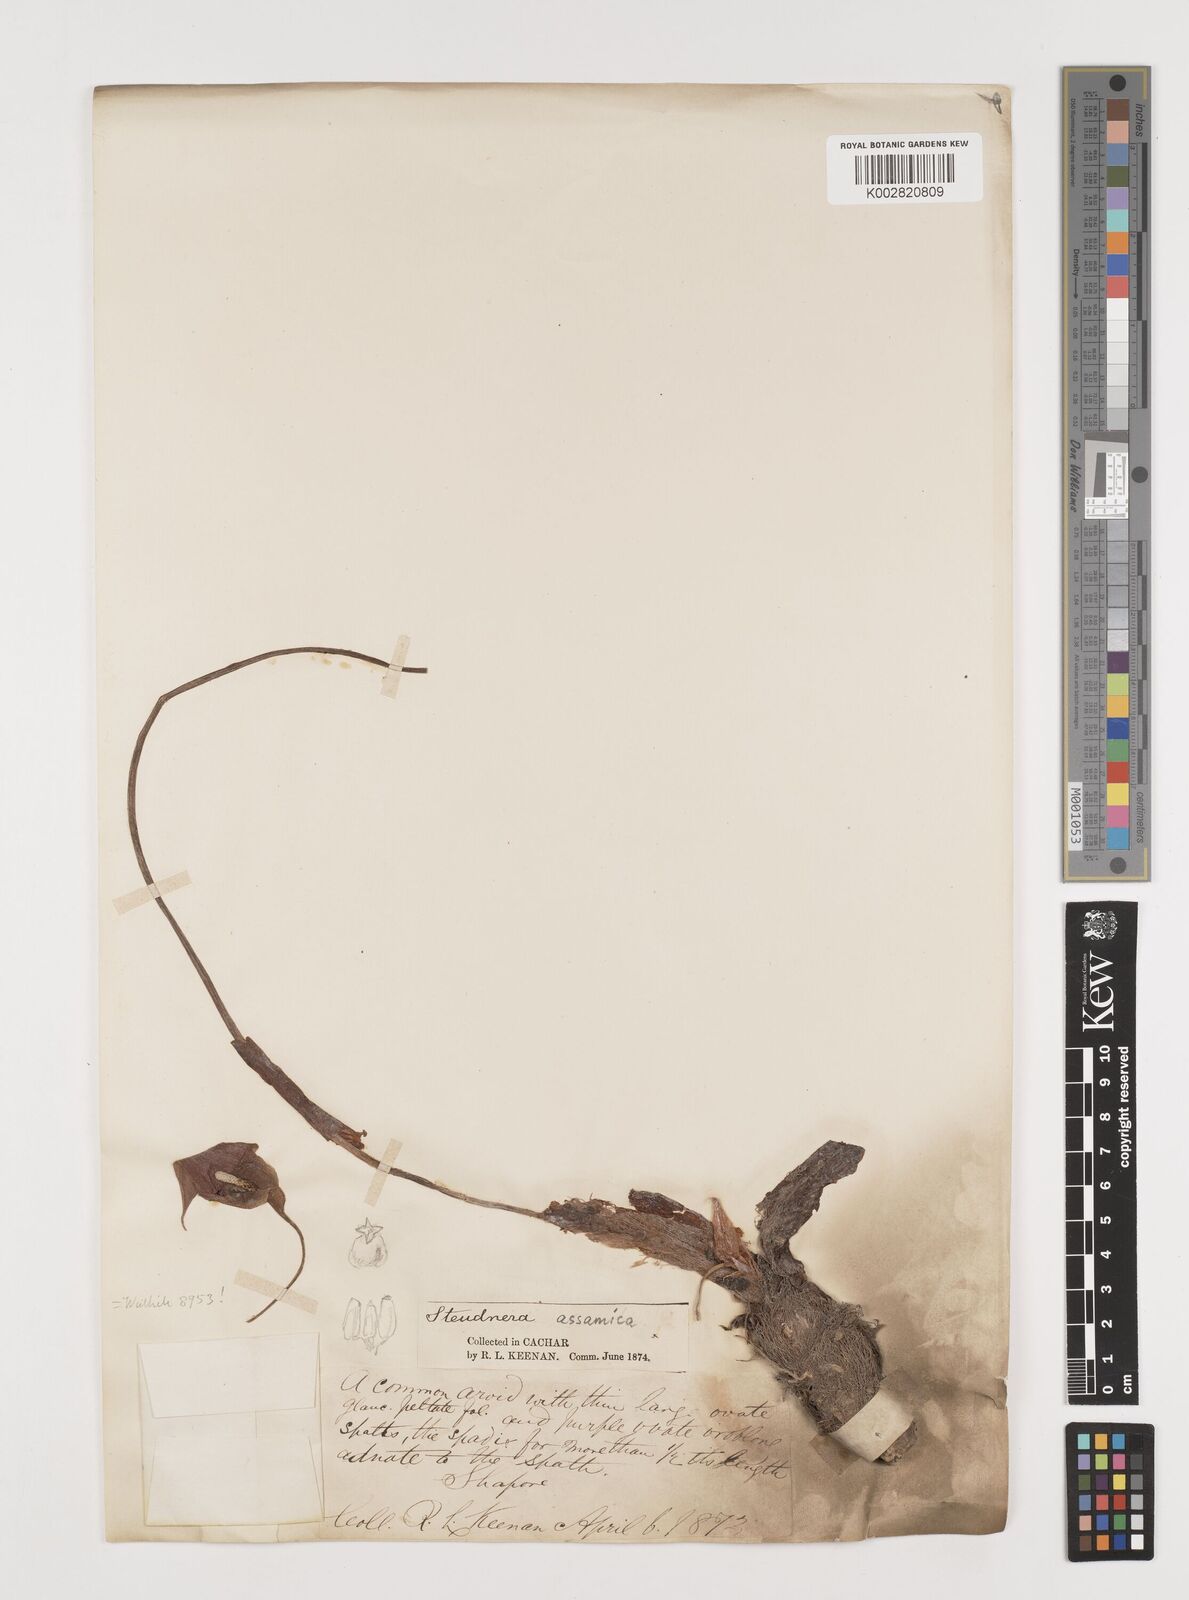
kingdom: Plantae
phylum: Tracheophyta
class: Liliopsida
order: Alismatales
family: Araceae
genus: Steudnera
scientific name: Steudnera assamica
